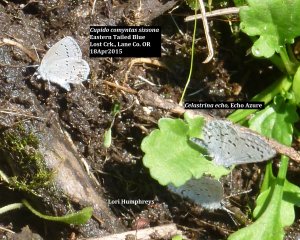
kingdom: Animalia
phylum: Arthropoda
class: Insecta
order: Lepidoptera
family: Lycaenidae
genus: Elkalyce
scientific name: Elkalyce comyntas
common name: Eastern Tailed-Blue
